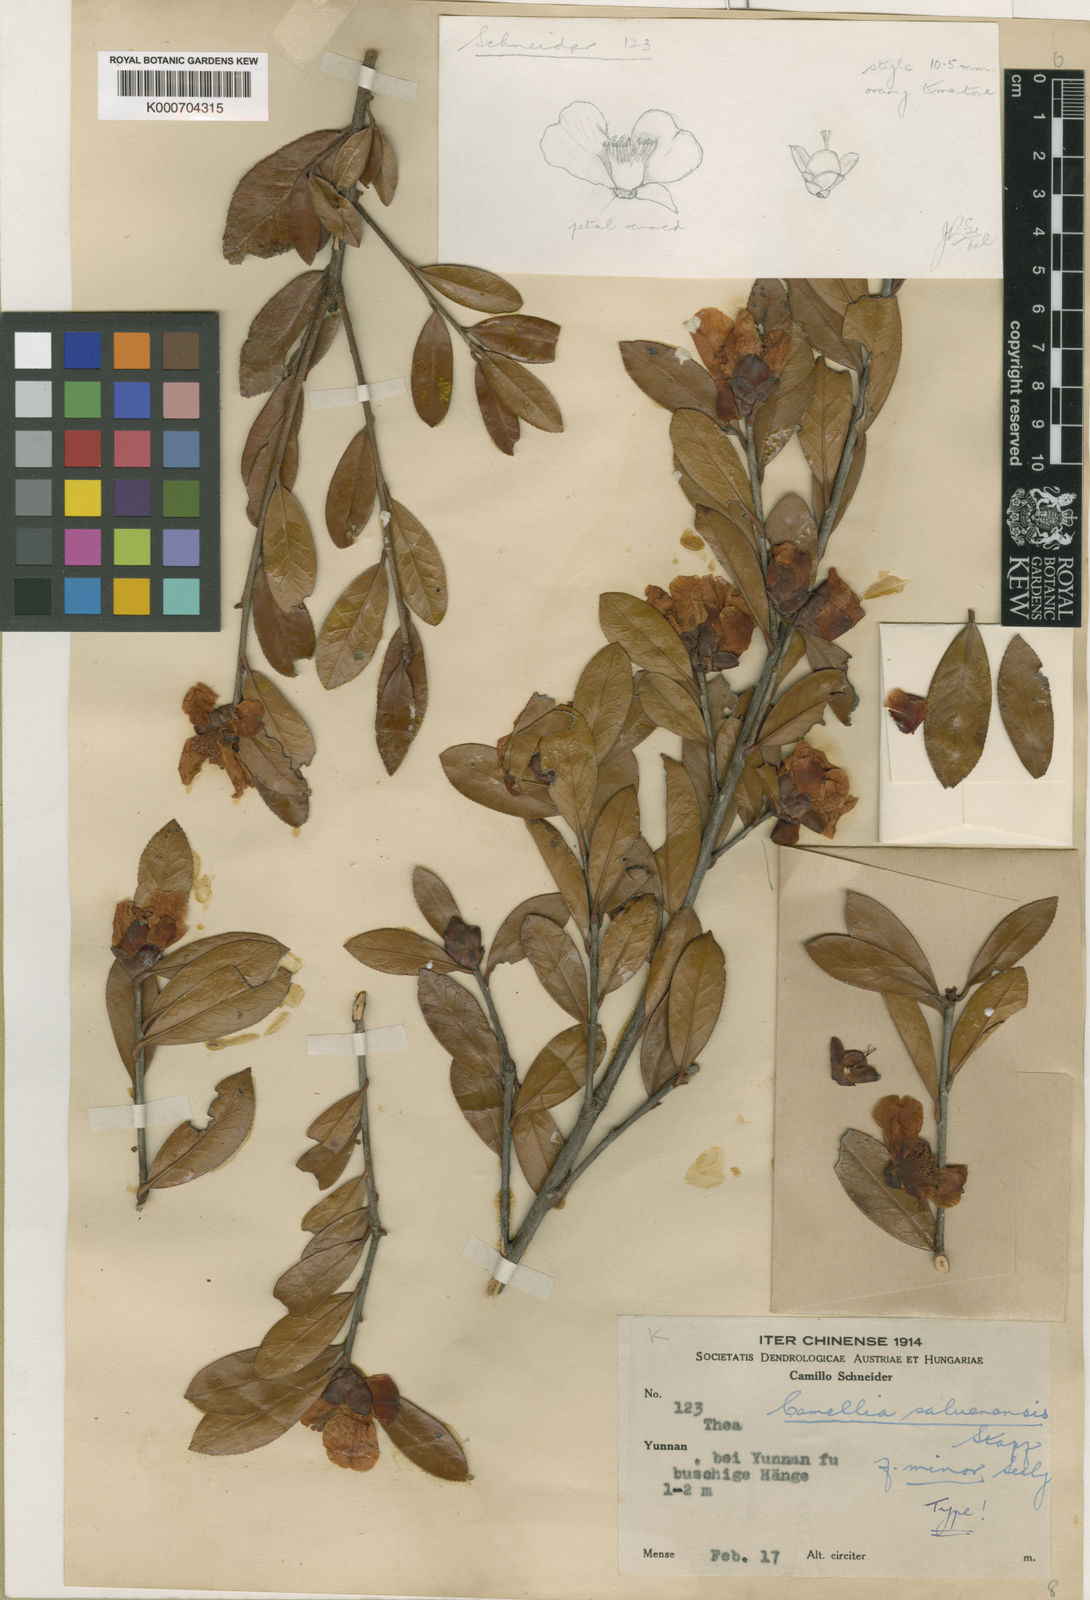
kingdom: Plantae
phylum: Tracheophyta
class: Magnoliopsida
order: Ericales
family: Theaceae
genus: Camellia
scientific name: Camellia saluenensis
